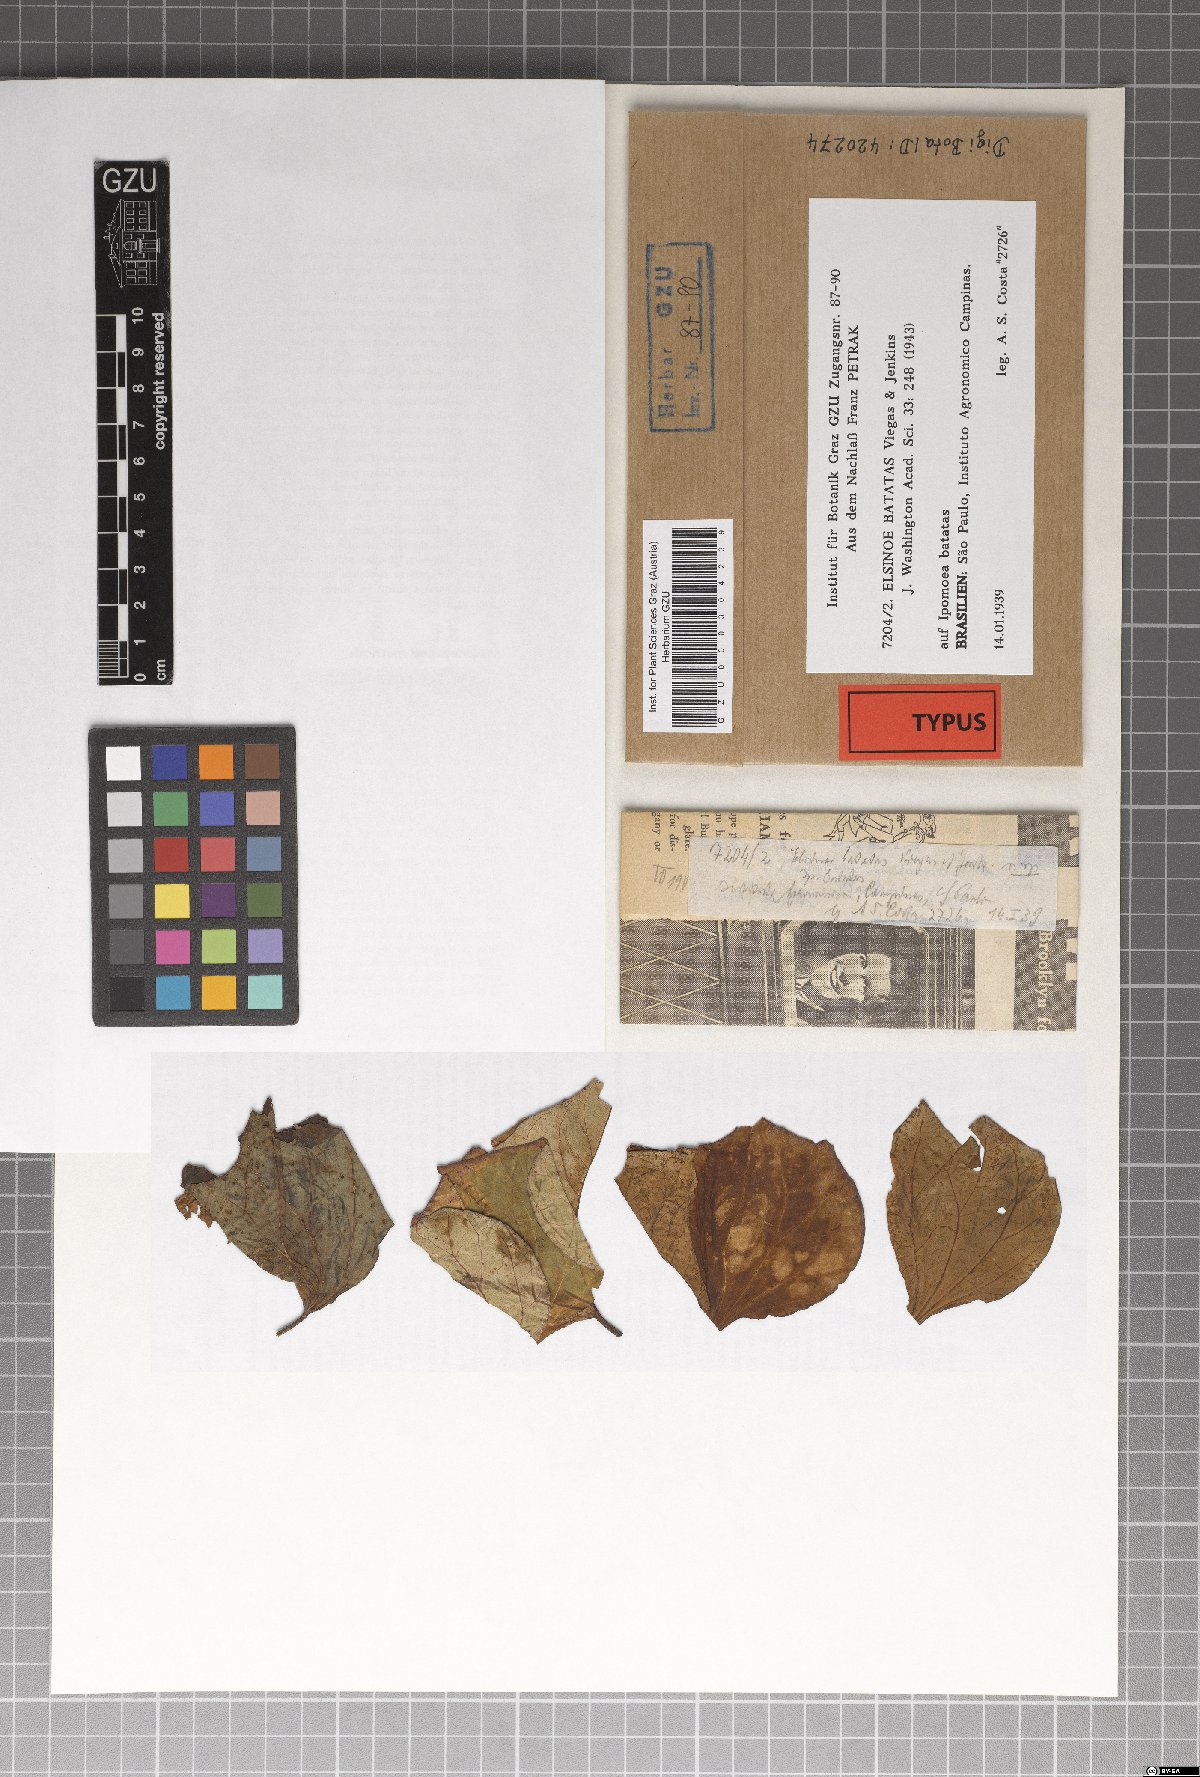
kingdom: Fungi
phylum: Ascomycota
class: Dothideomycetes
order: Myriangiales
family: Elsinoaceae
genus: Elsinoe
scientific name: Elsinoe batatas
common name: Leaf and stem scab
